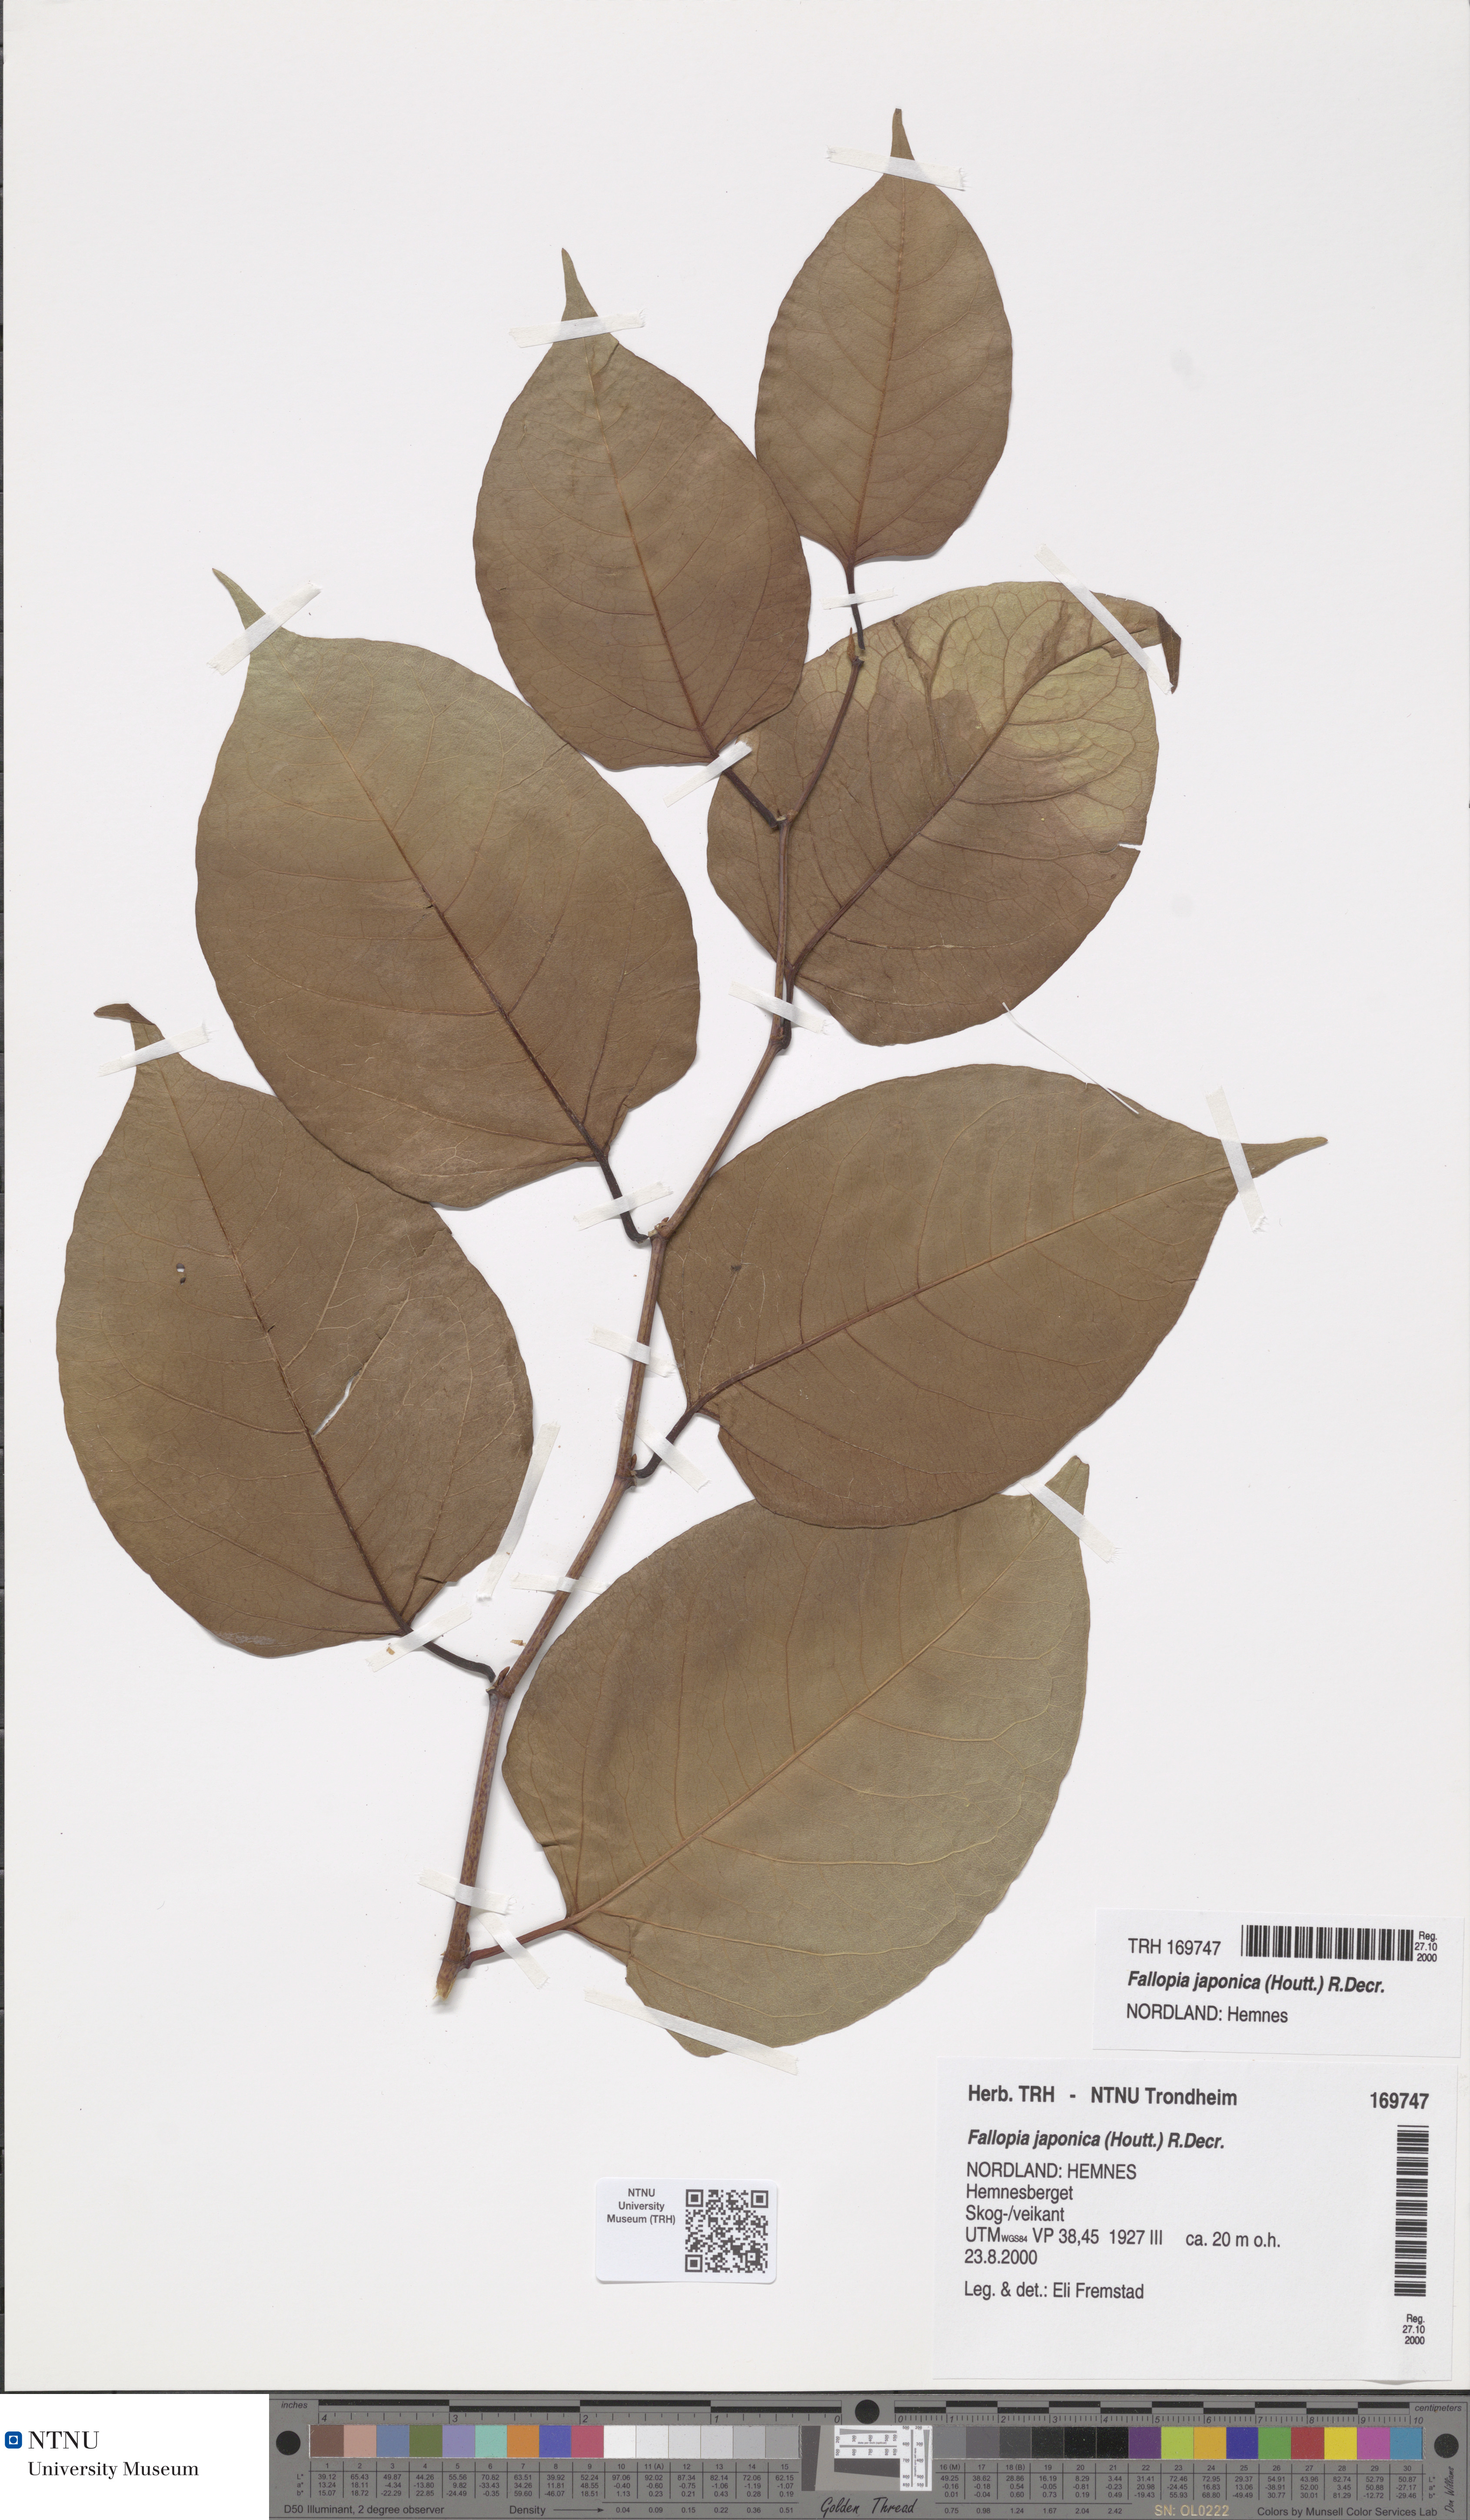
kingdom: Plantae
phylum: Tracheophyta
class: Magnoliopsida
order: Caryophyllales
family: Polygonaceae
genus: Reynoutria
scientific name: Reynoutria japonica
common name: Japanese knotweed
